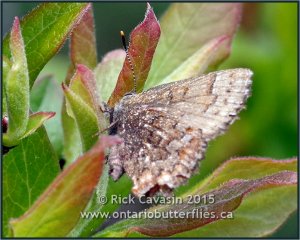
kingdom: Animalia
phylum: Arthropoda
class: Insecta
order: Lepidoptera
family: Lycaenidae
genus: Incisalia
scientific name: Incisalia niphon
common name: Eastern Pine Elfin
